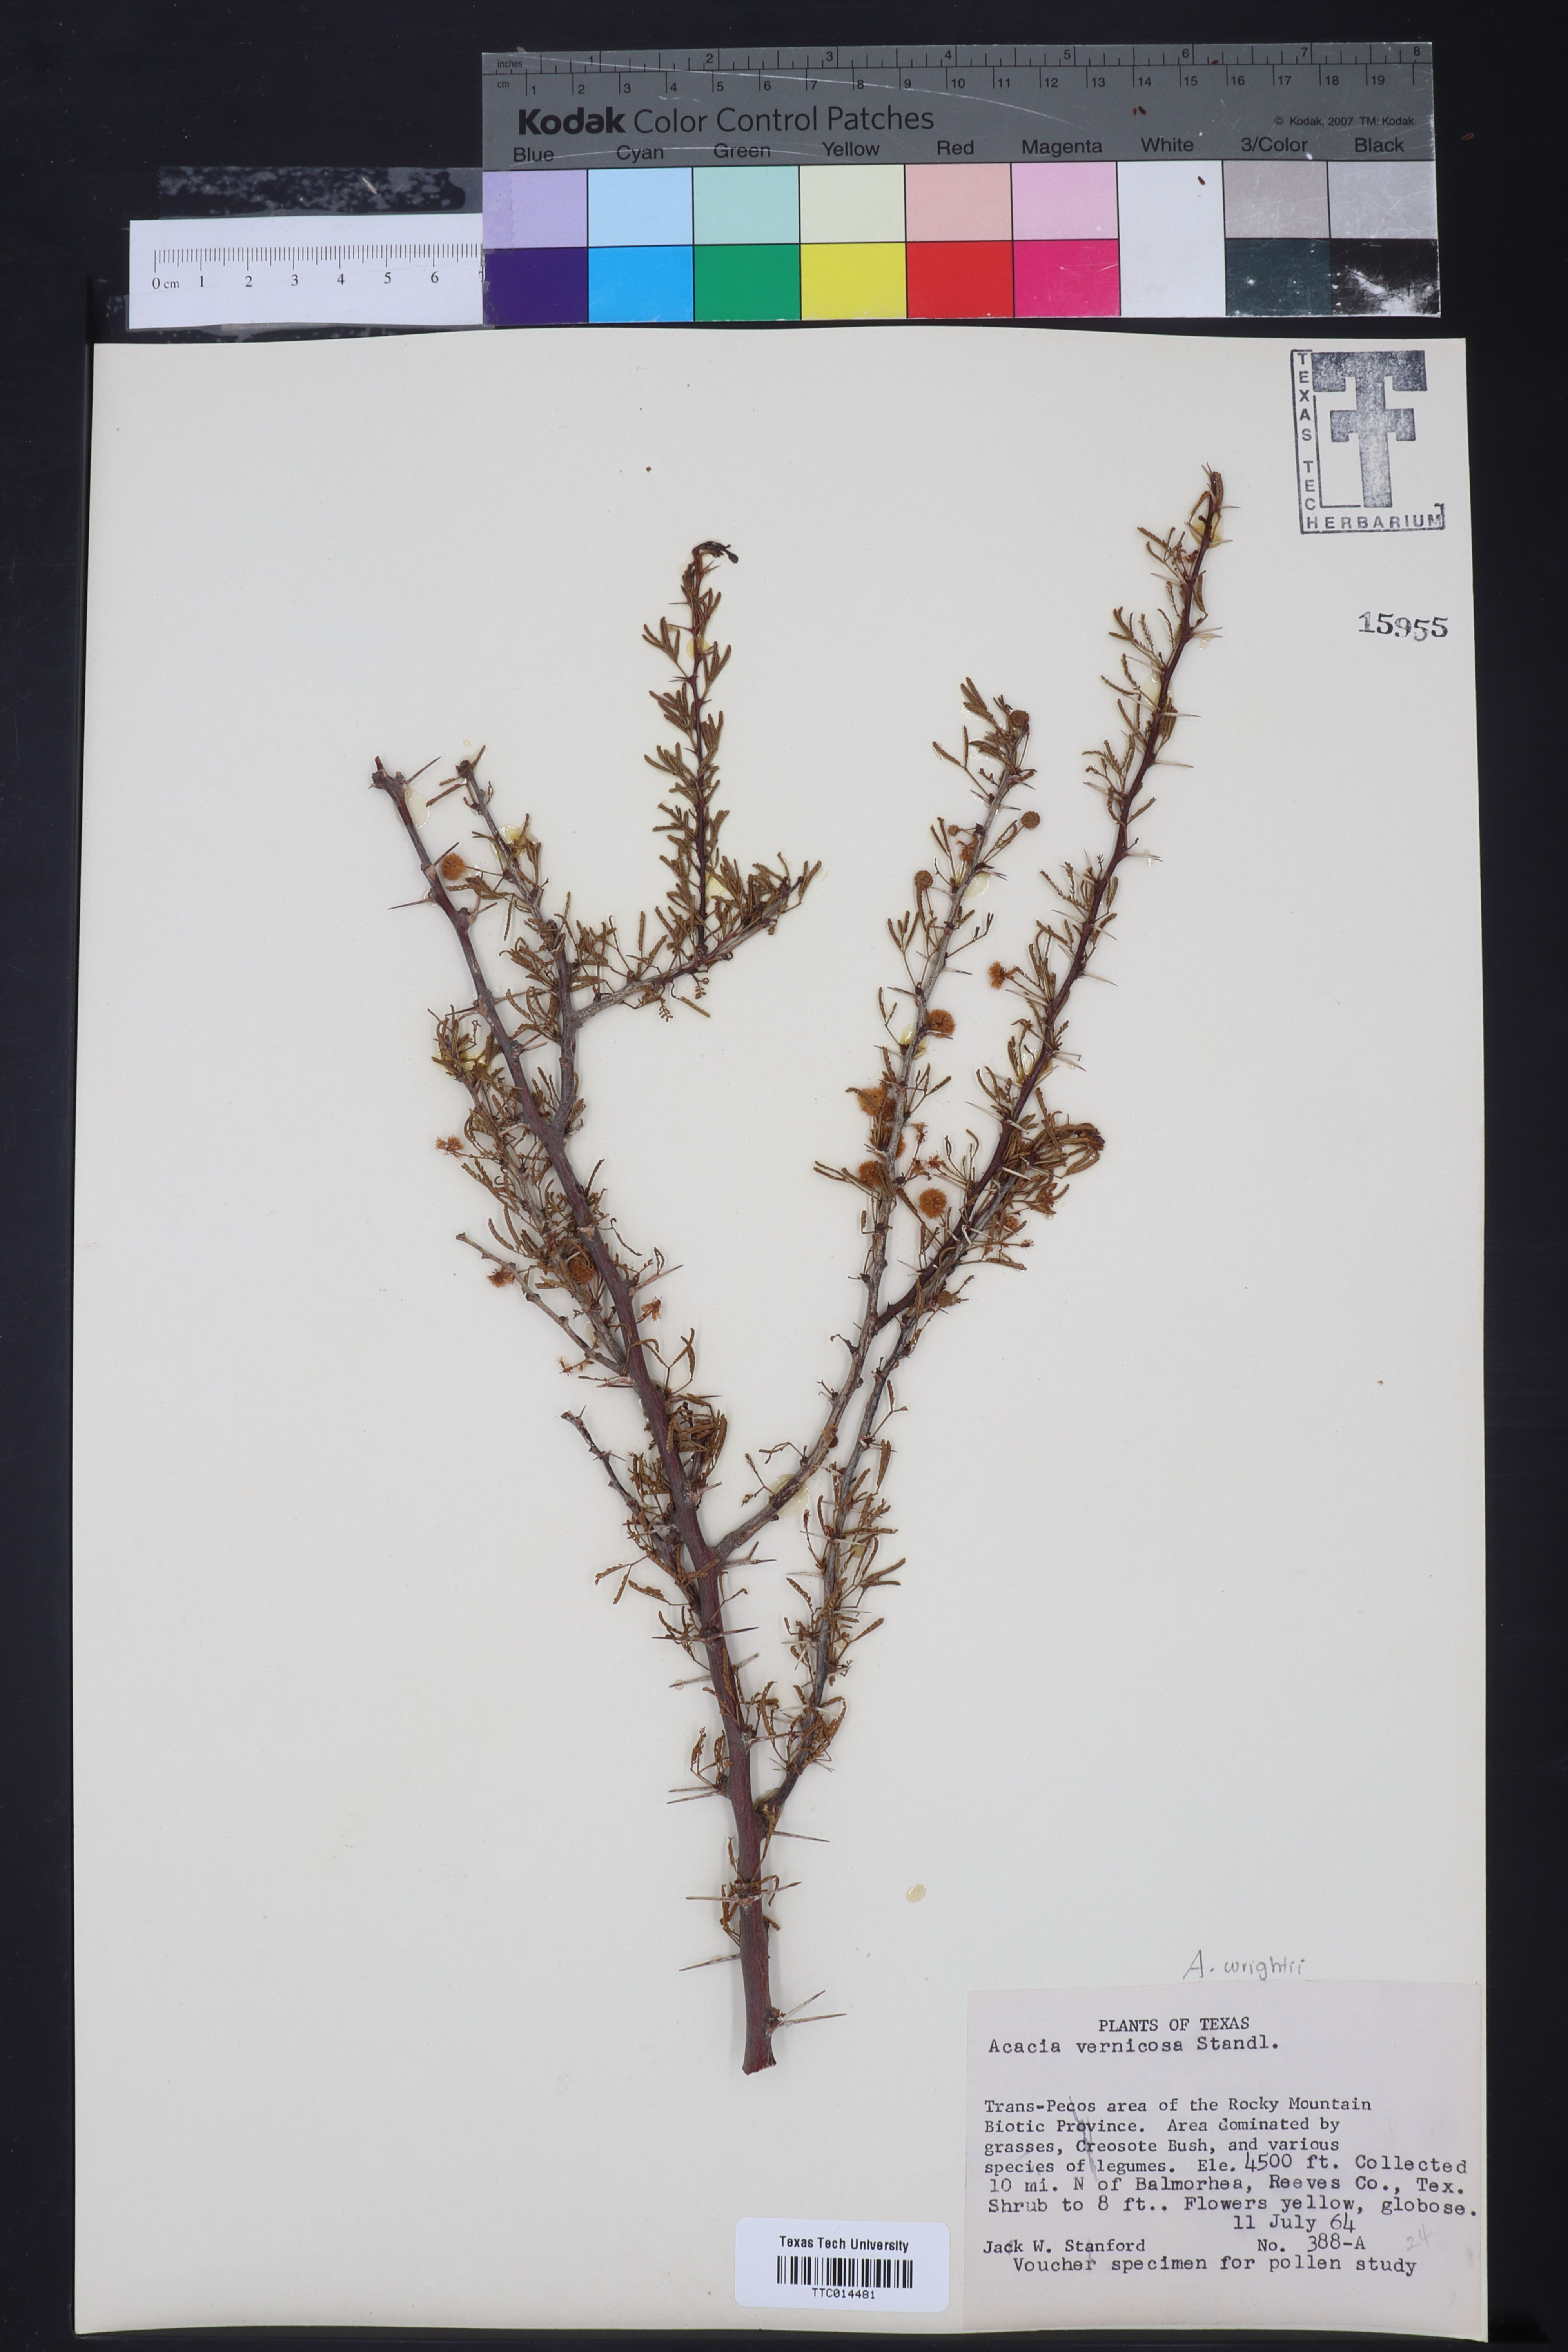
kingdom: Plantae
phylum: Tracheophyta
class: Magnoliopsida
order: Fabales
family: Fabaceae
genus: Vachellia
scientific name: Vachellia vernicosa
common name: Viscid acacia
